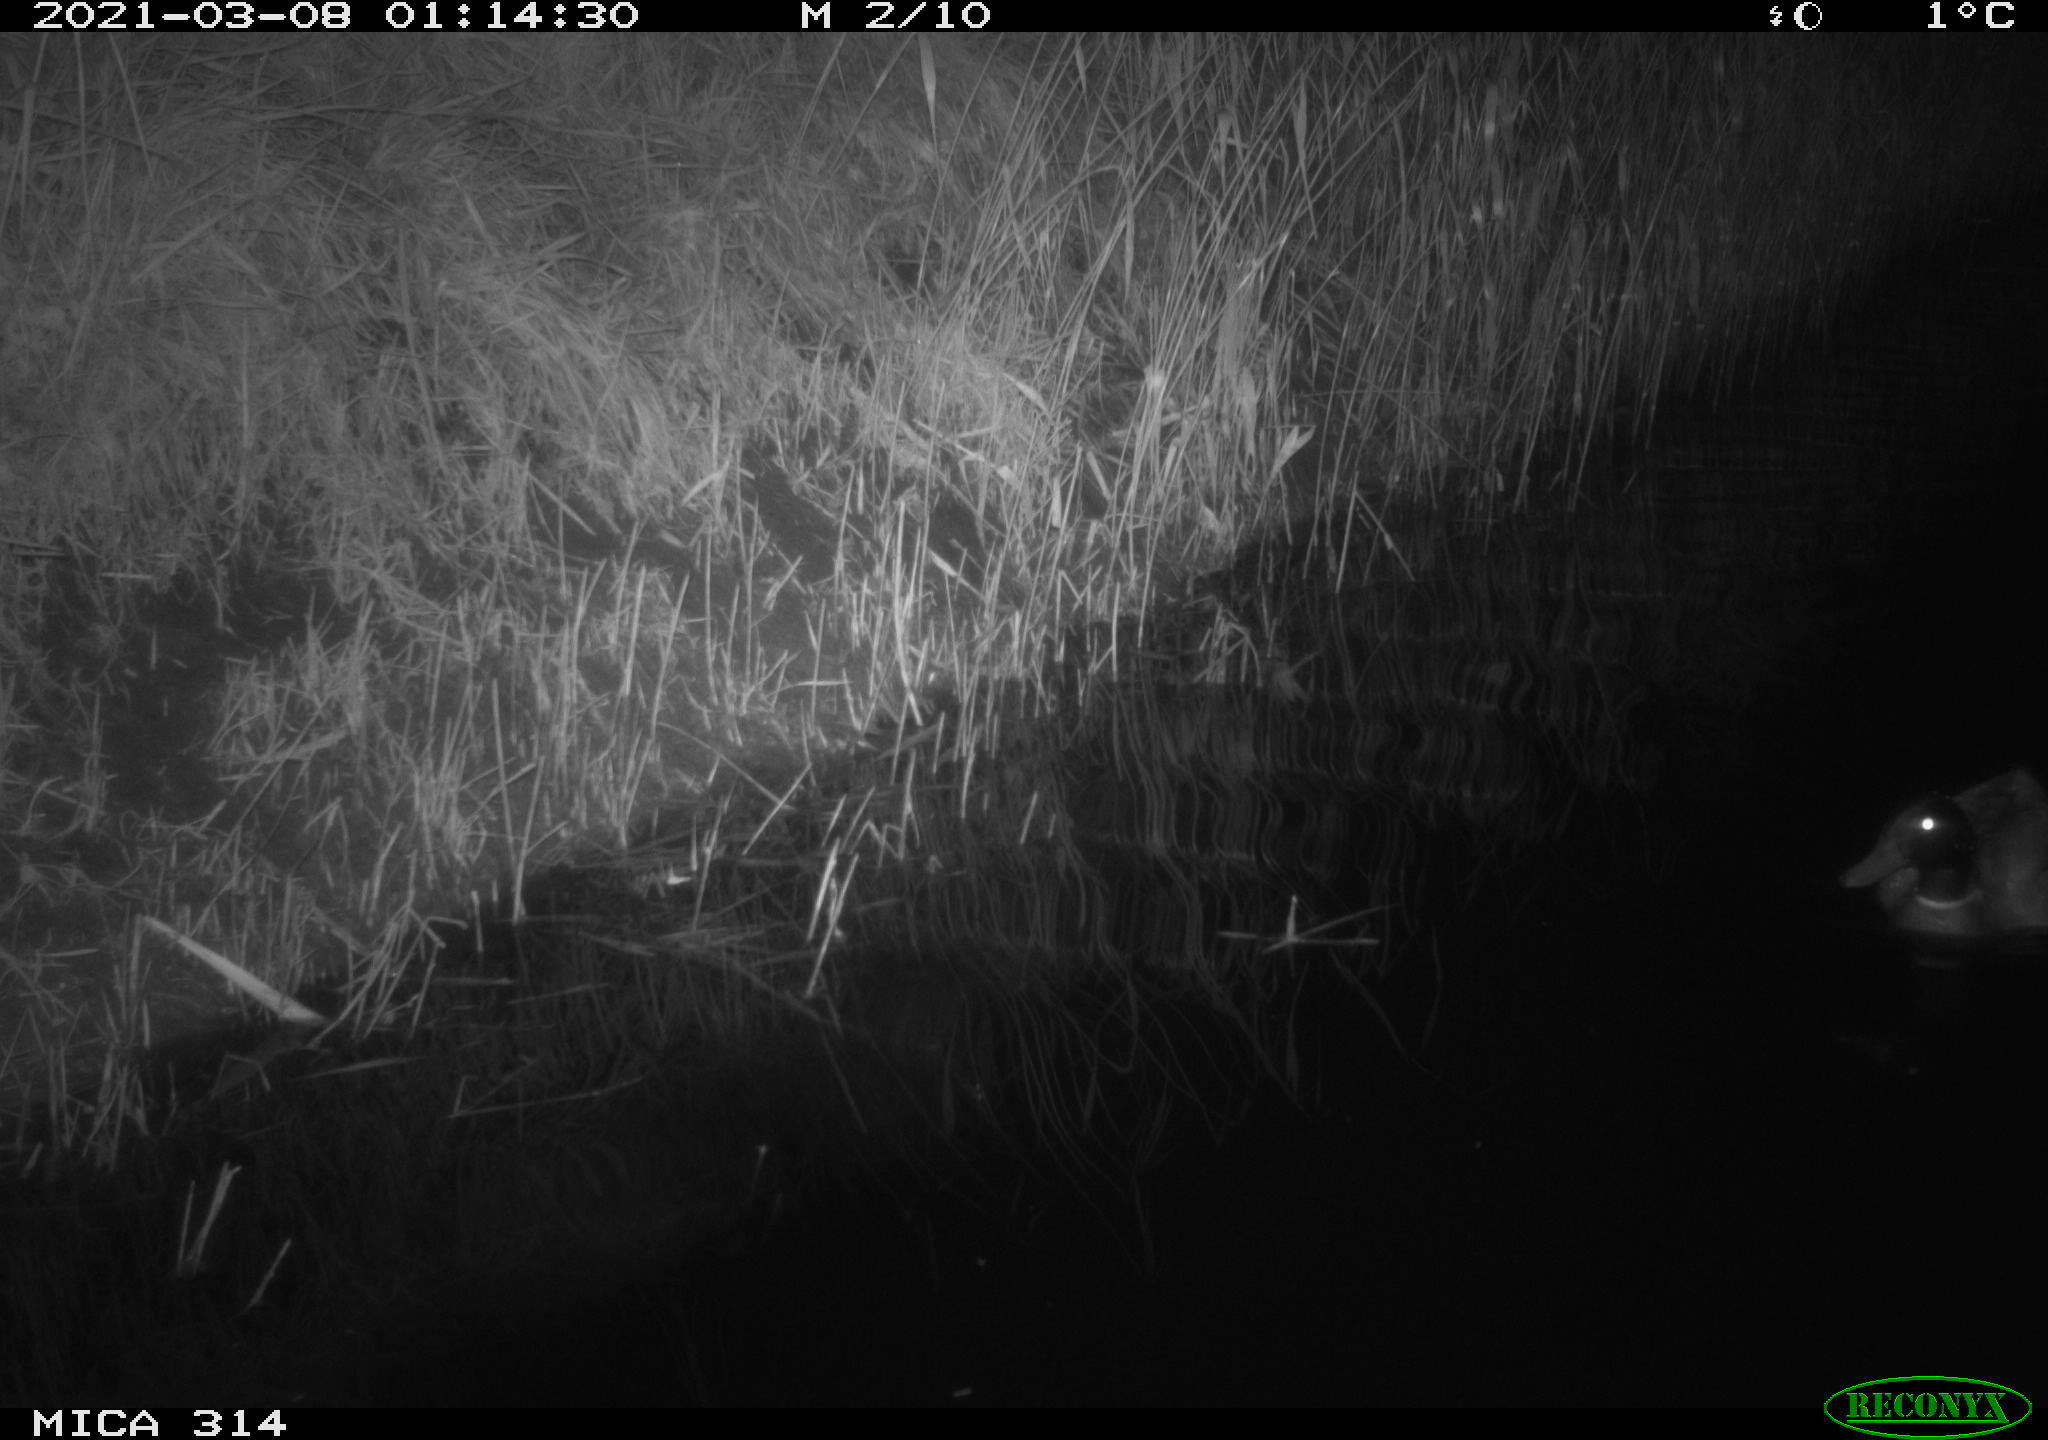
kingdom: Animalia
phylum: Chordata
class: Aves
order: Anseriformes
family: Anatidae
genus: Anas
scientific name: Anas platyrhynchos
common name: Mallard
